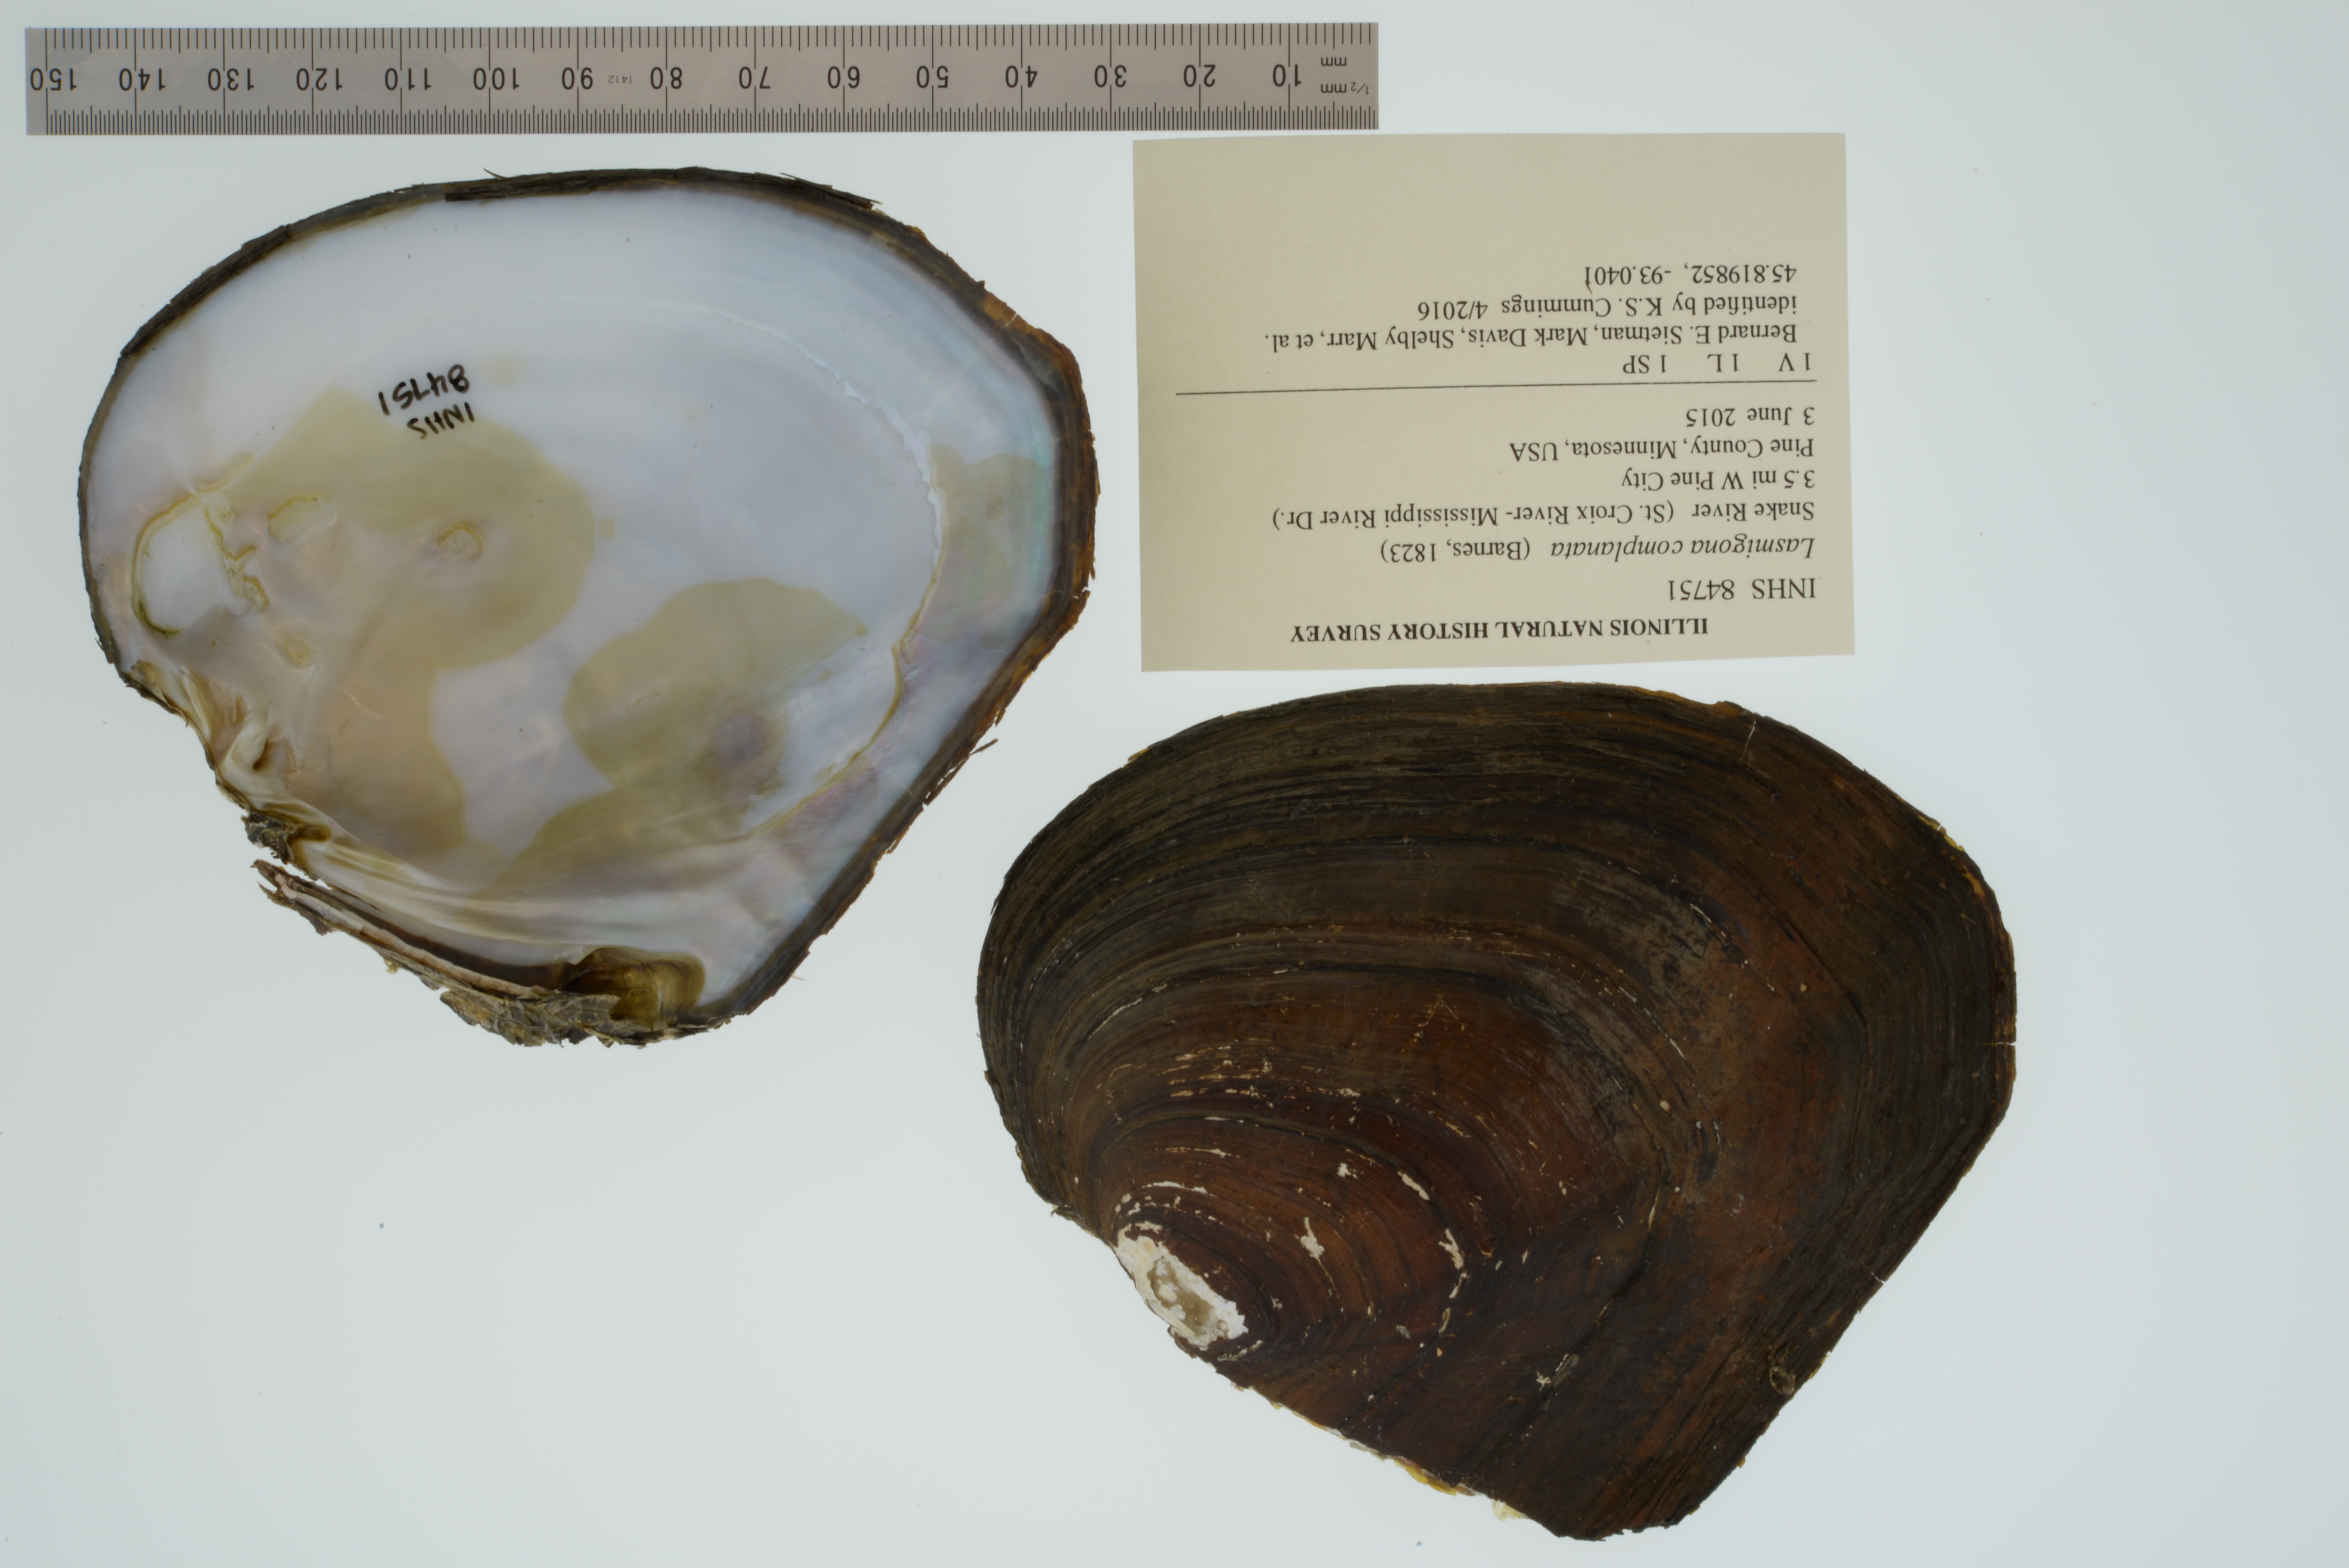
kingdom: Animalia
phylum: Mollusca
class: Bivalvia
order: Unionida
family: Unionidae
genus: Lasmigona
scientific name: Lasmigona complanata
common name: White heelsplitter
